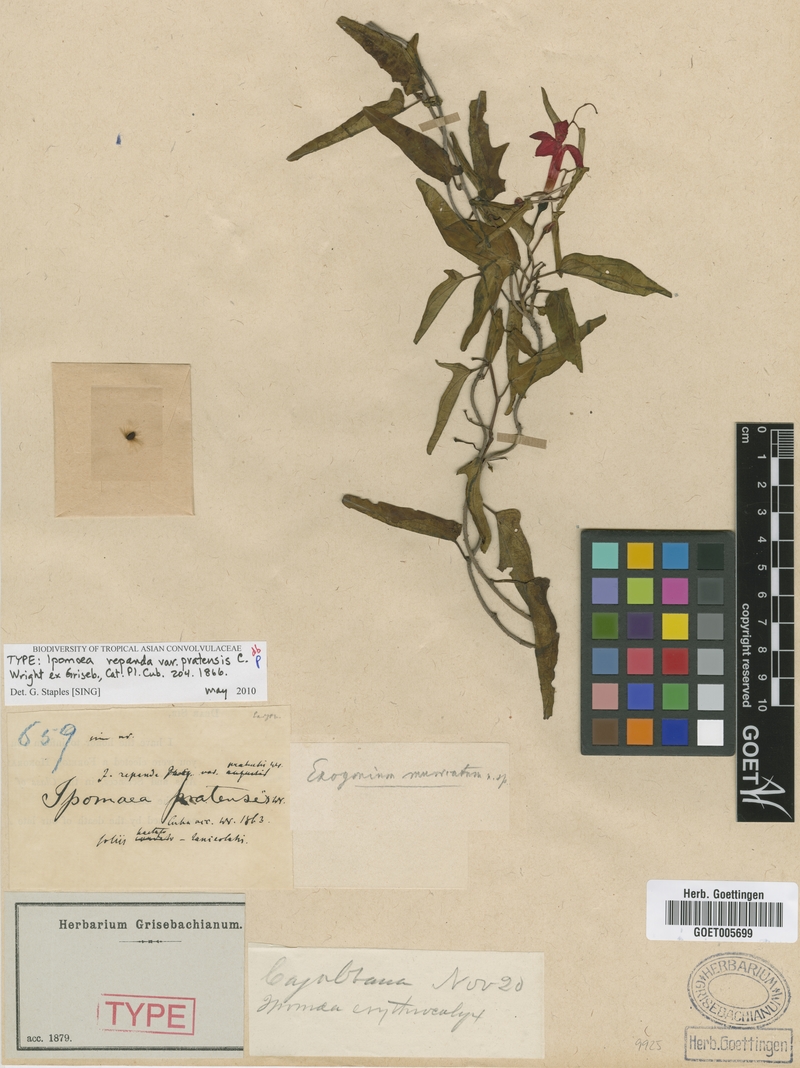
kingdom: Plantae
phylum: Tracheophyta
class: Magnoliopsida
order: Solanales
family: Convolvulaceae
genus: Ipomoea
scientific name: Ipomoea microdactyla
